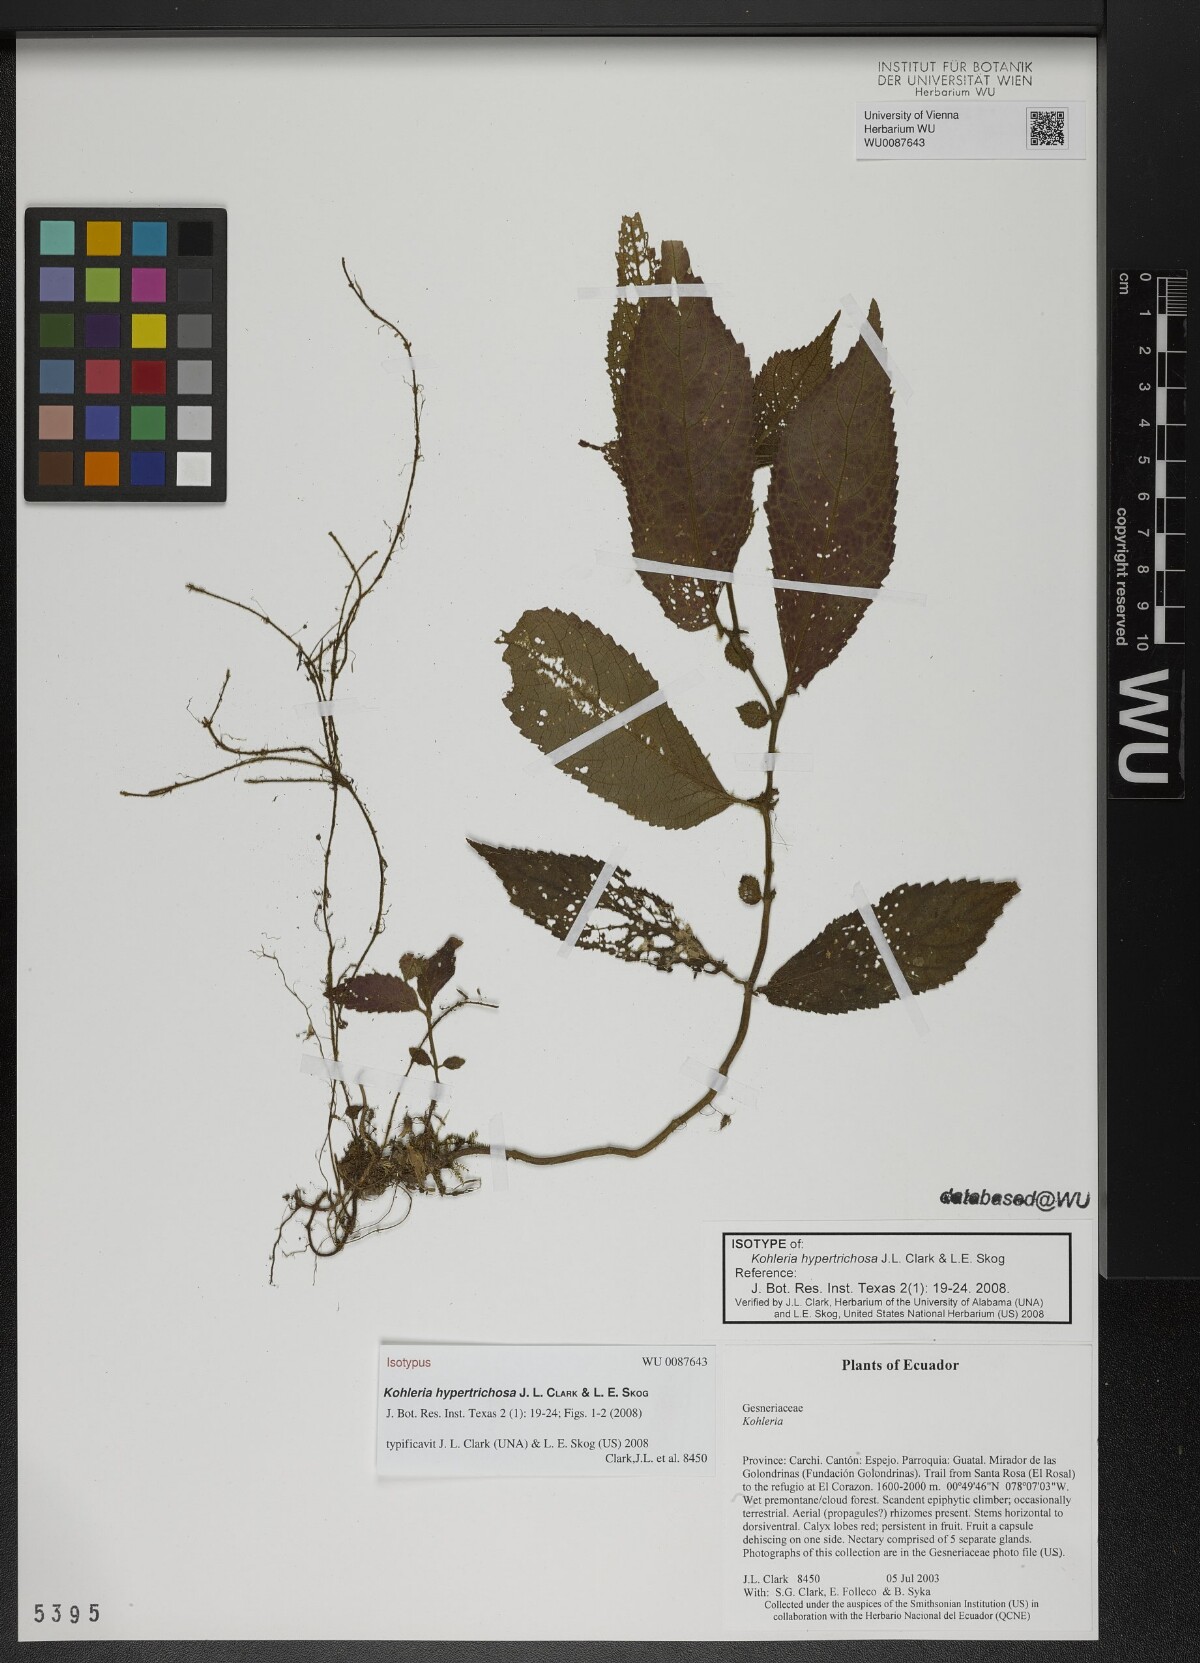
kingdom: Plantae
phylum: Tracheophyta
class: Magnoliopsida
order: Lamiales
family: Gesneriaceae
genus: Kohleria
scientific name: Kohleria hypertrichosa
